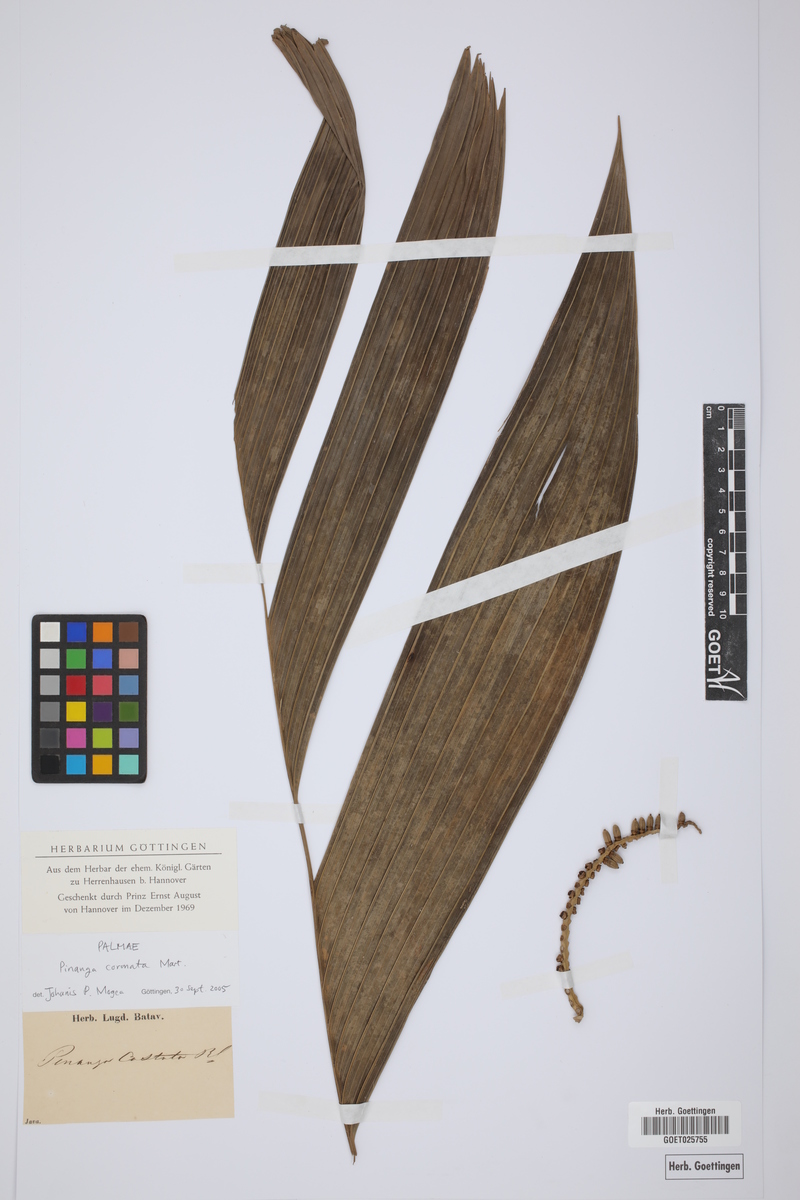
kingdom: Plantae
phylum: Tracheophyta
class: Liliopsida
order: Arecales
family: Arecaceae
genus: Pinanga
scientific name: Pinanga coronata
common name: Ivory cane palm
